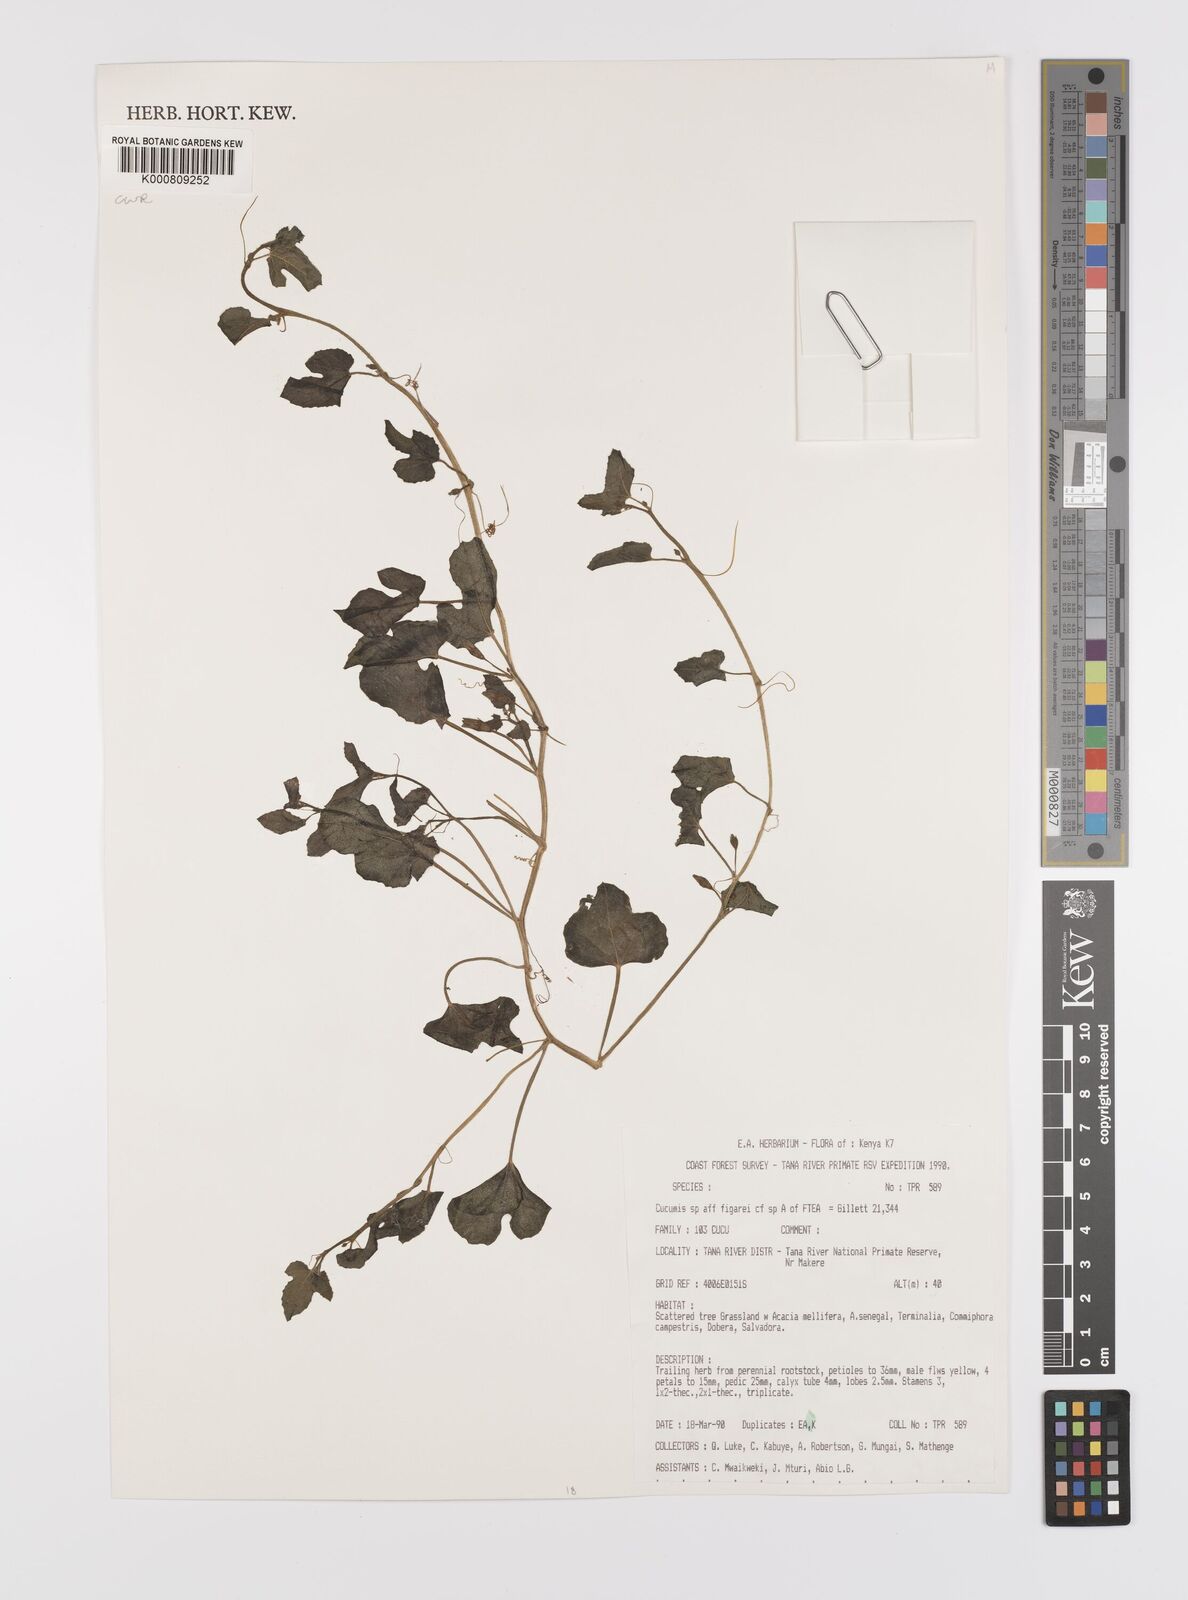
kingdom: Plantae
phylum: Tracheophyta
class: Magnoliopsida
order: Cucurbitales
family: Cucurbitaceae
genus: Cucumis
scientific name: Cucumis
